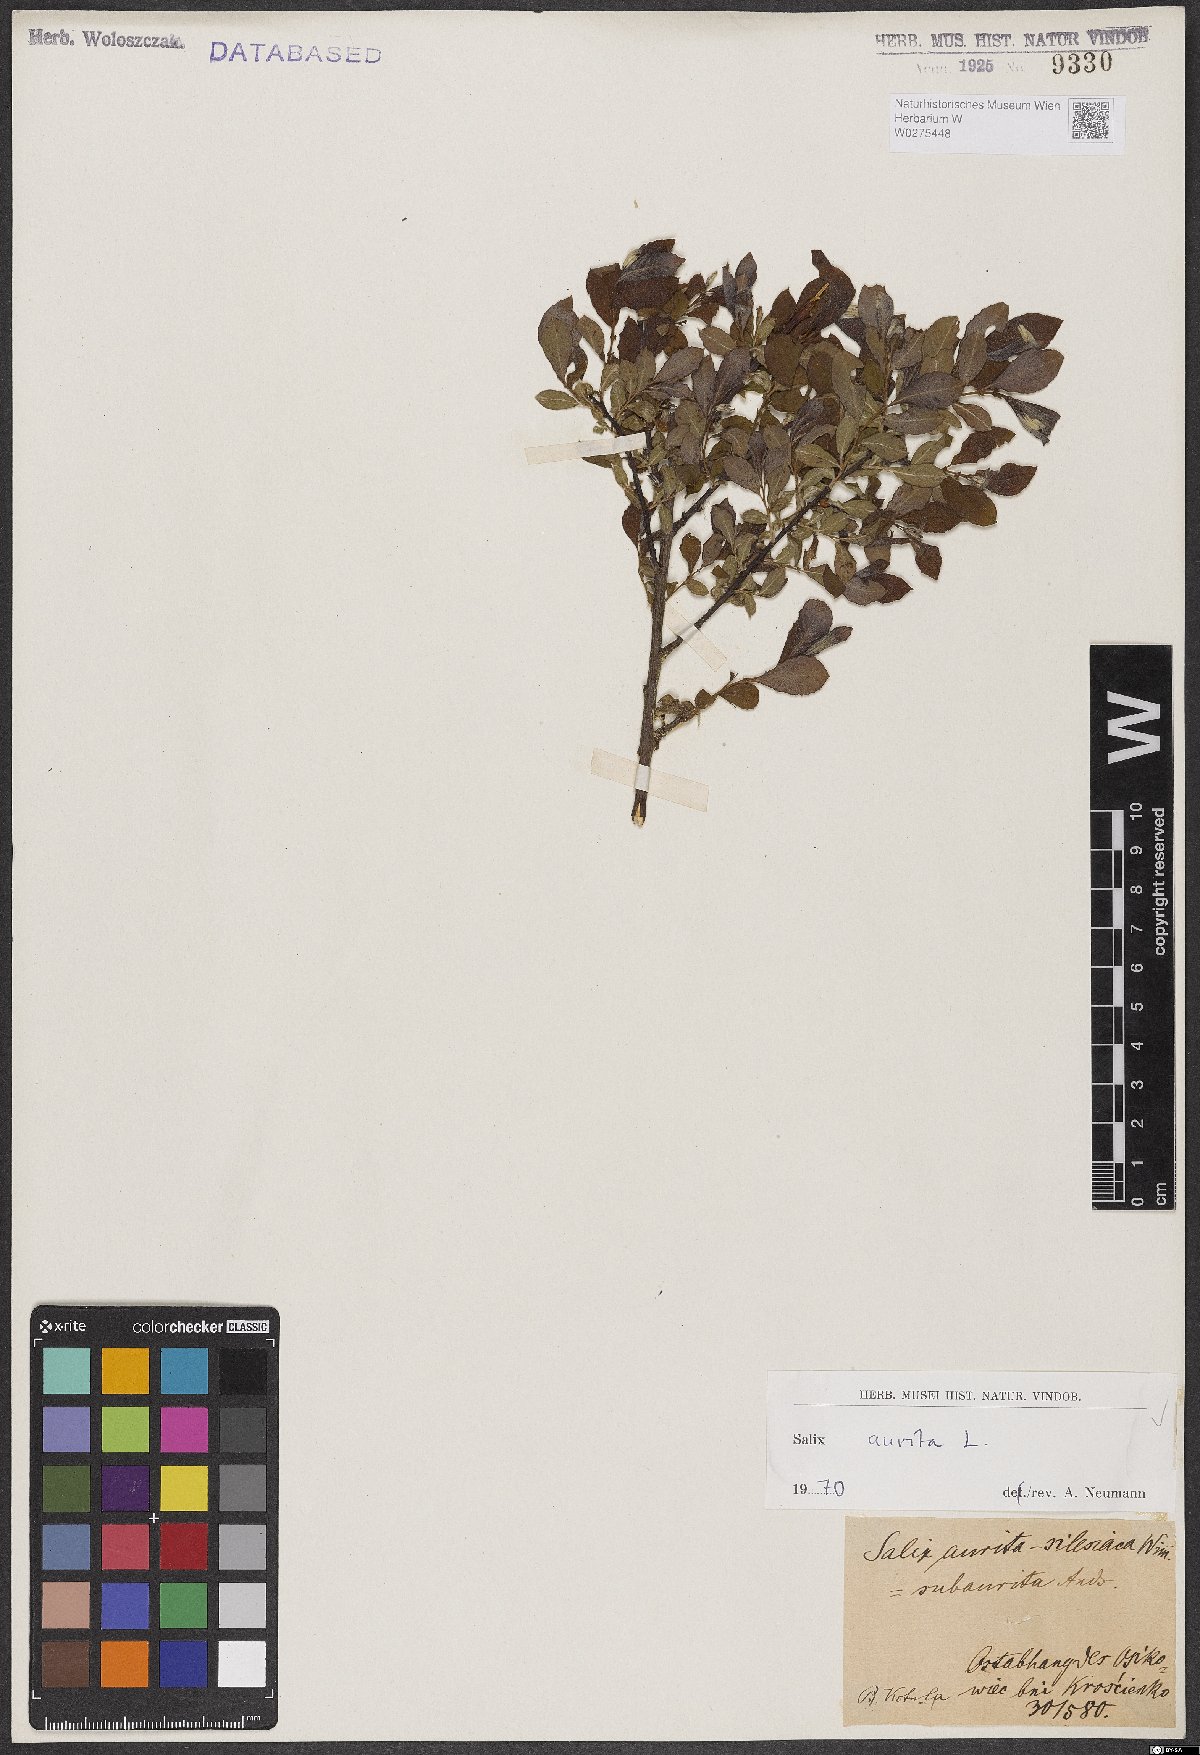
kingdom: Plantae
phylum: Tracheophyta
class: Magnoliopsida
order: Malpighiales
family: Salicaceae
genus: Salix
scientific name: Salix aurita
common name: Eared willow
